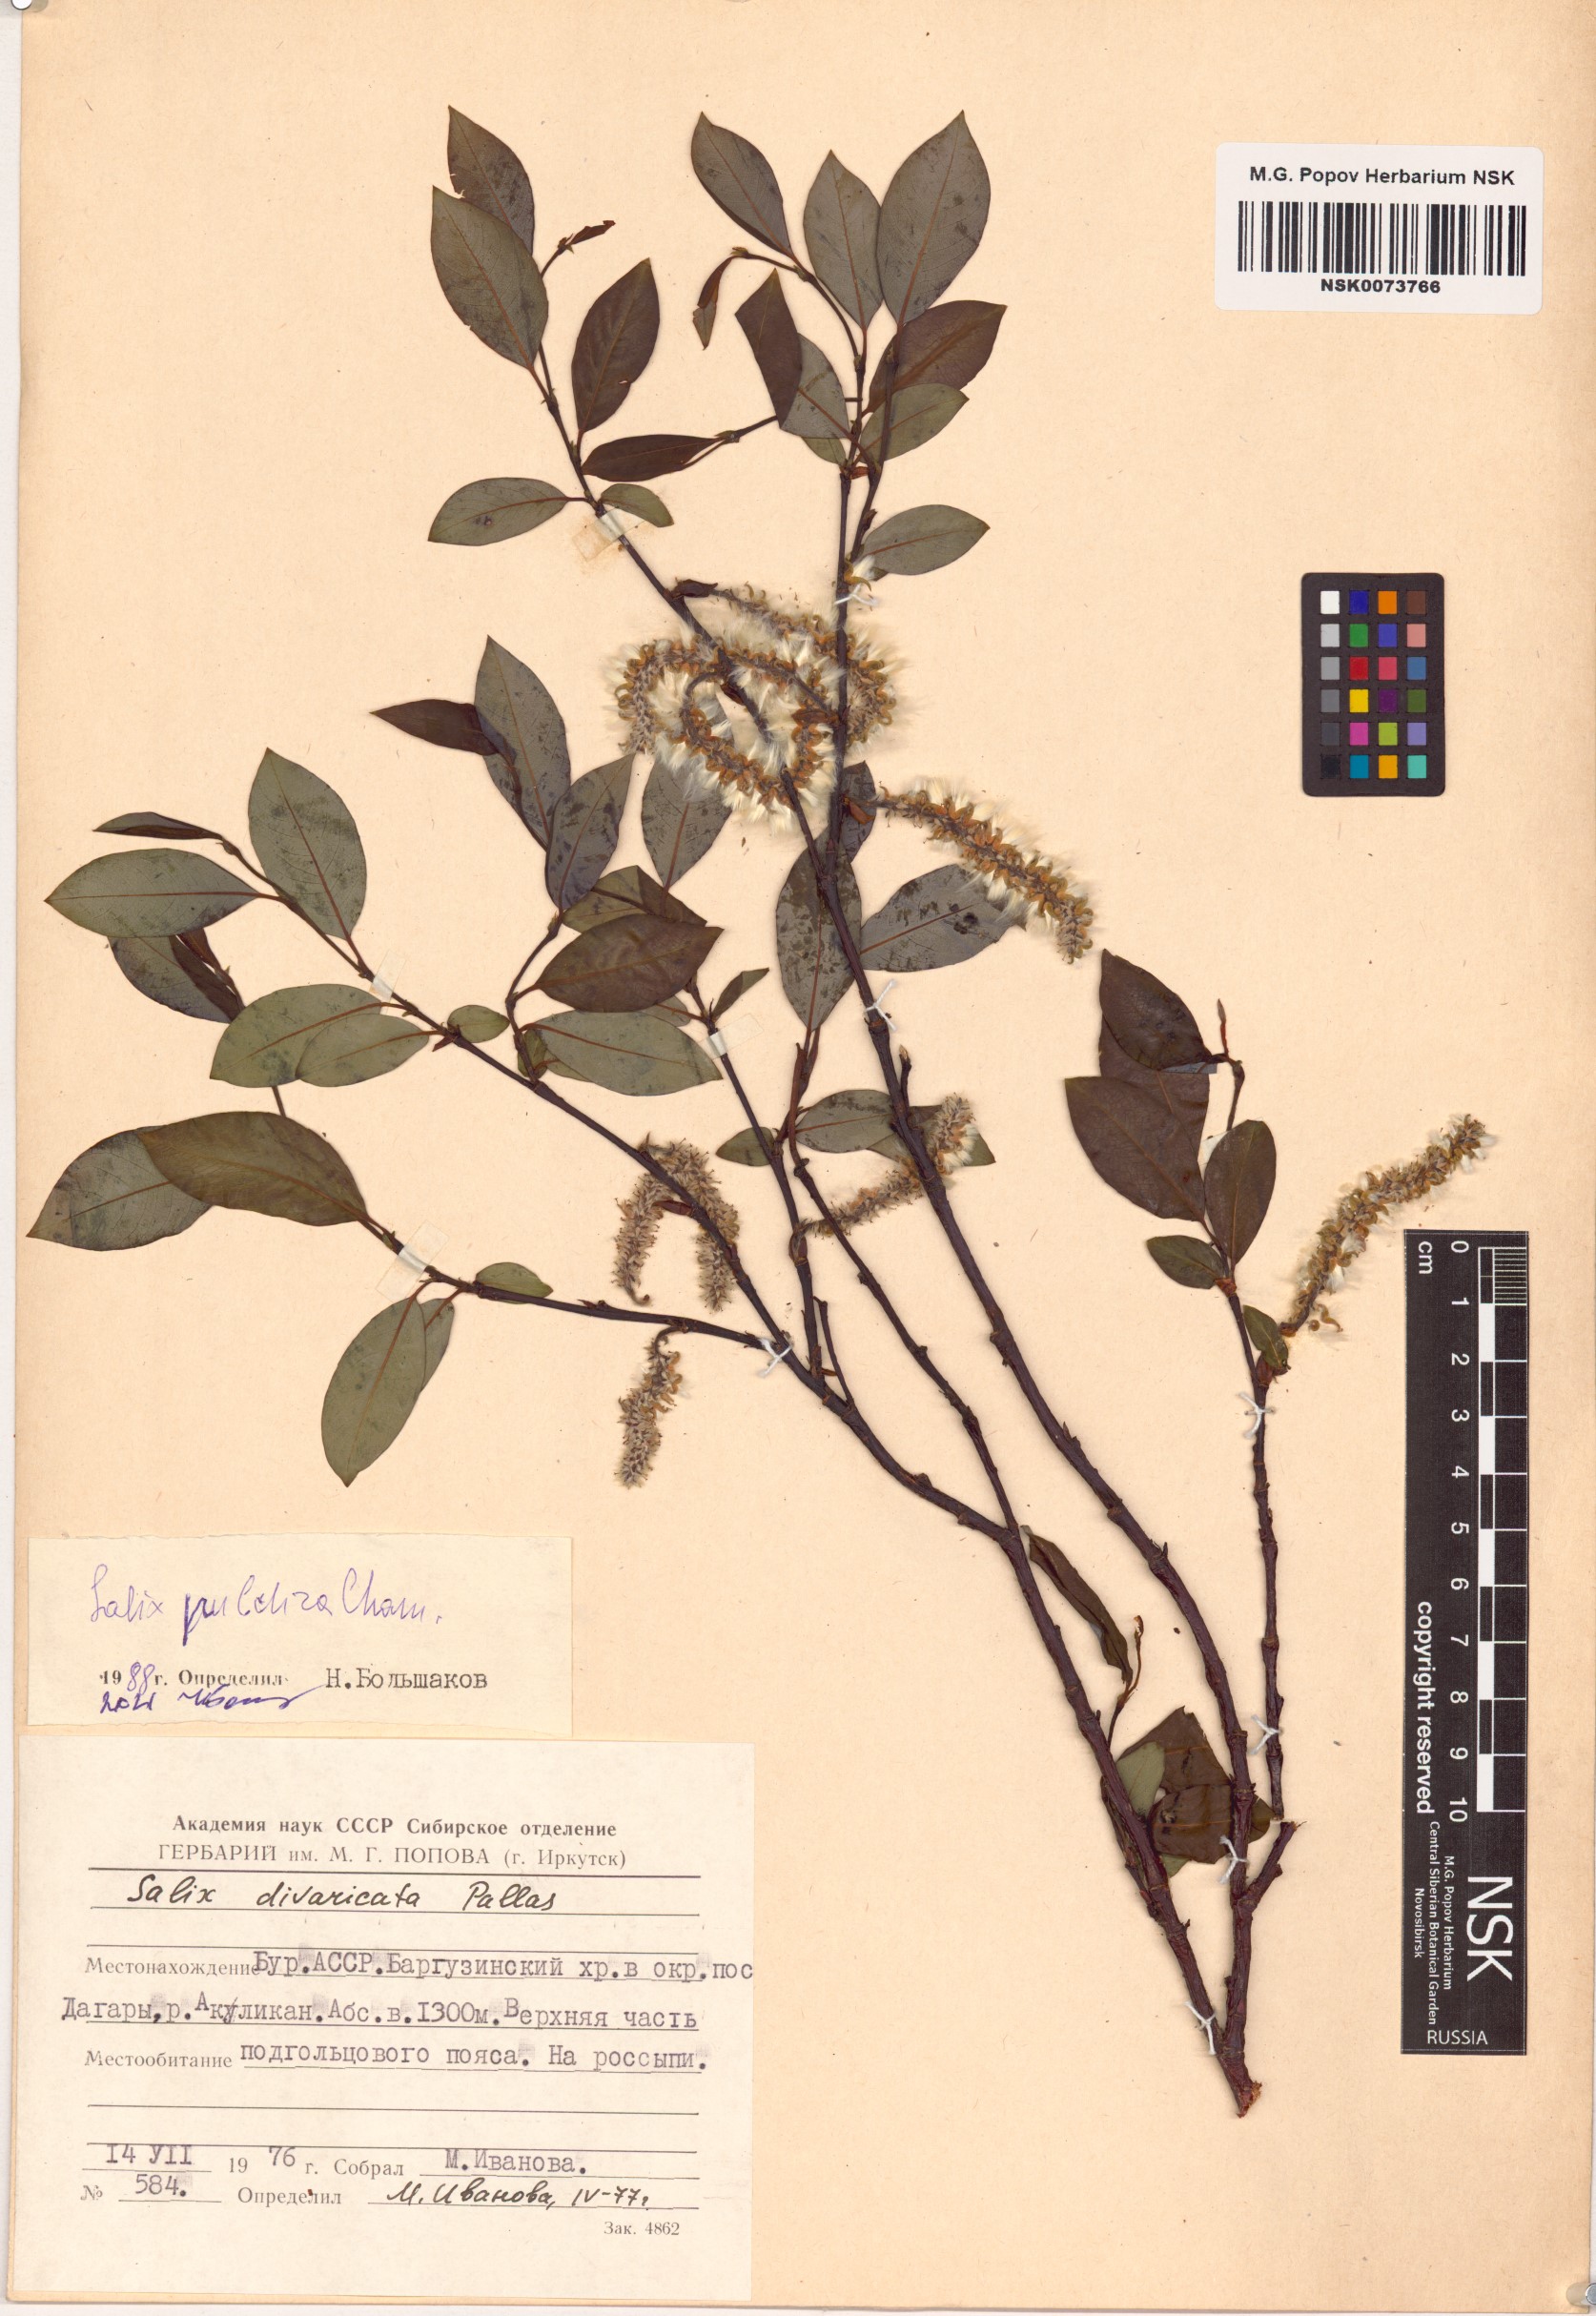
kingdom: Plantae
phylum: Tracheophyta
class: Magnoliopsida
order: Malpighiales
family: Salicaceae
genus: Salix
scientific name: Salix pulchra
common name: Diamond-leaved willow
